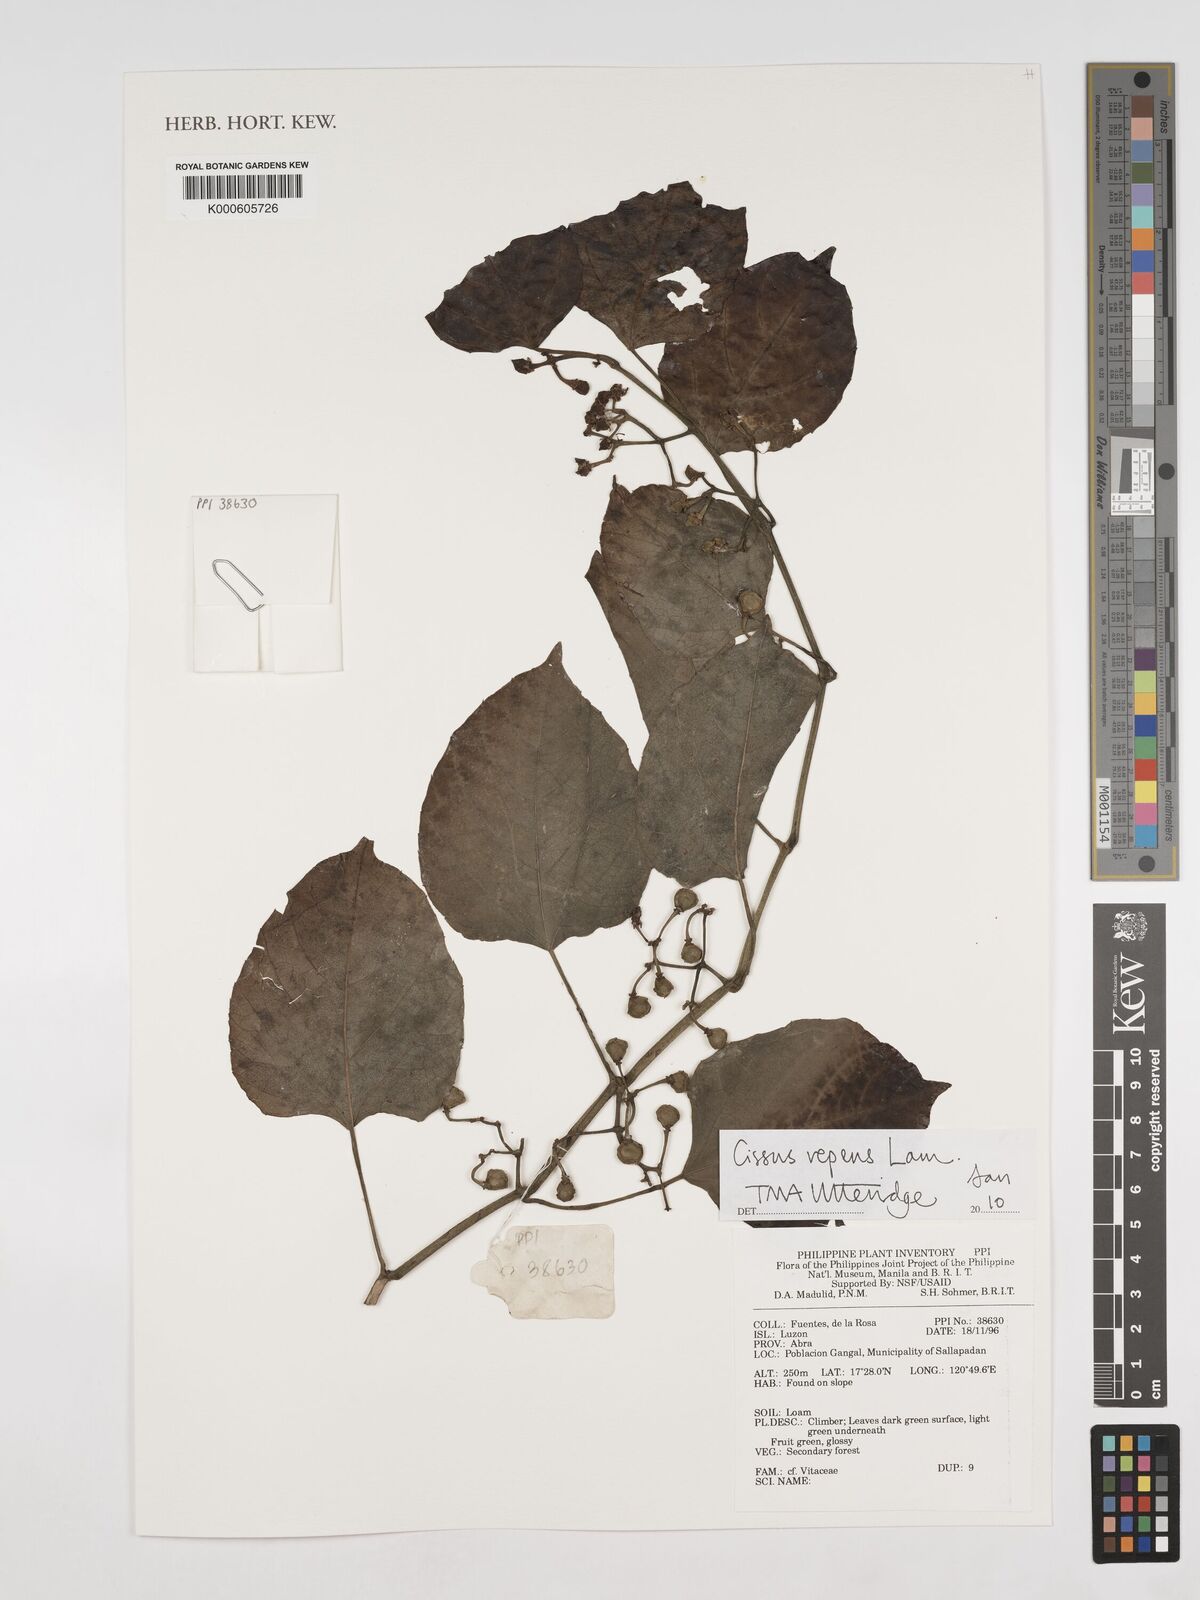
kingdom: Plantae
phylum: Tracheophyta
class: Magnoliopsida
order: Vitales
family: Vitaceae
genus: Cissus
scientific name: Cissus repens
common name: Cissus
